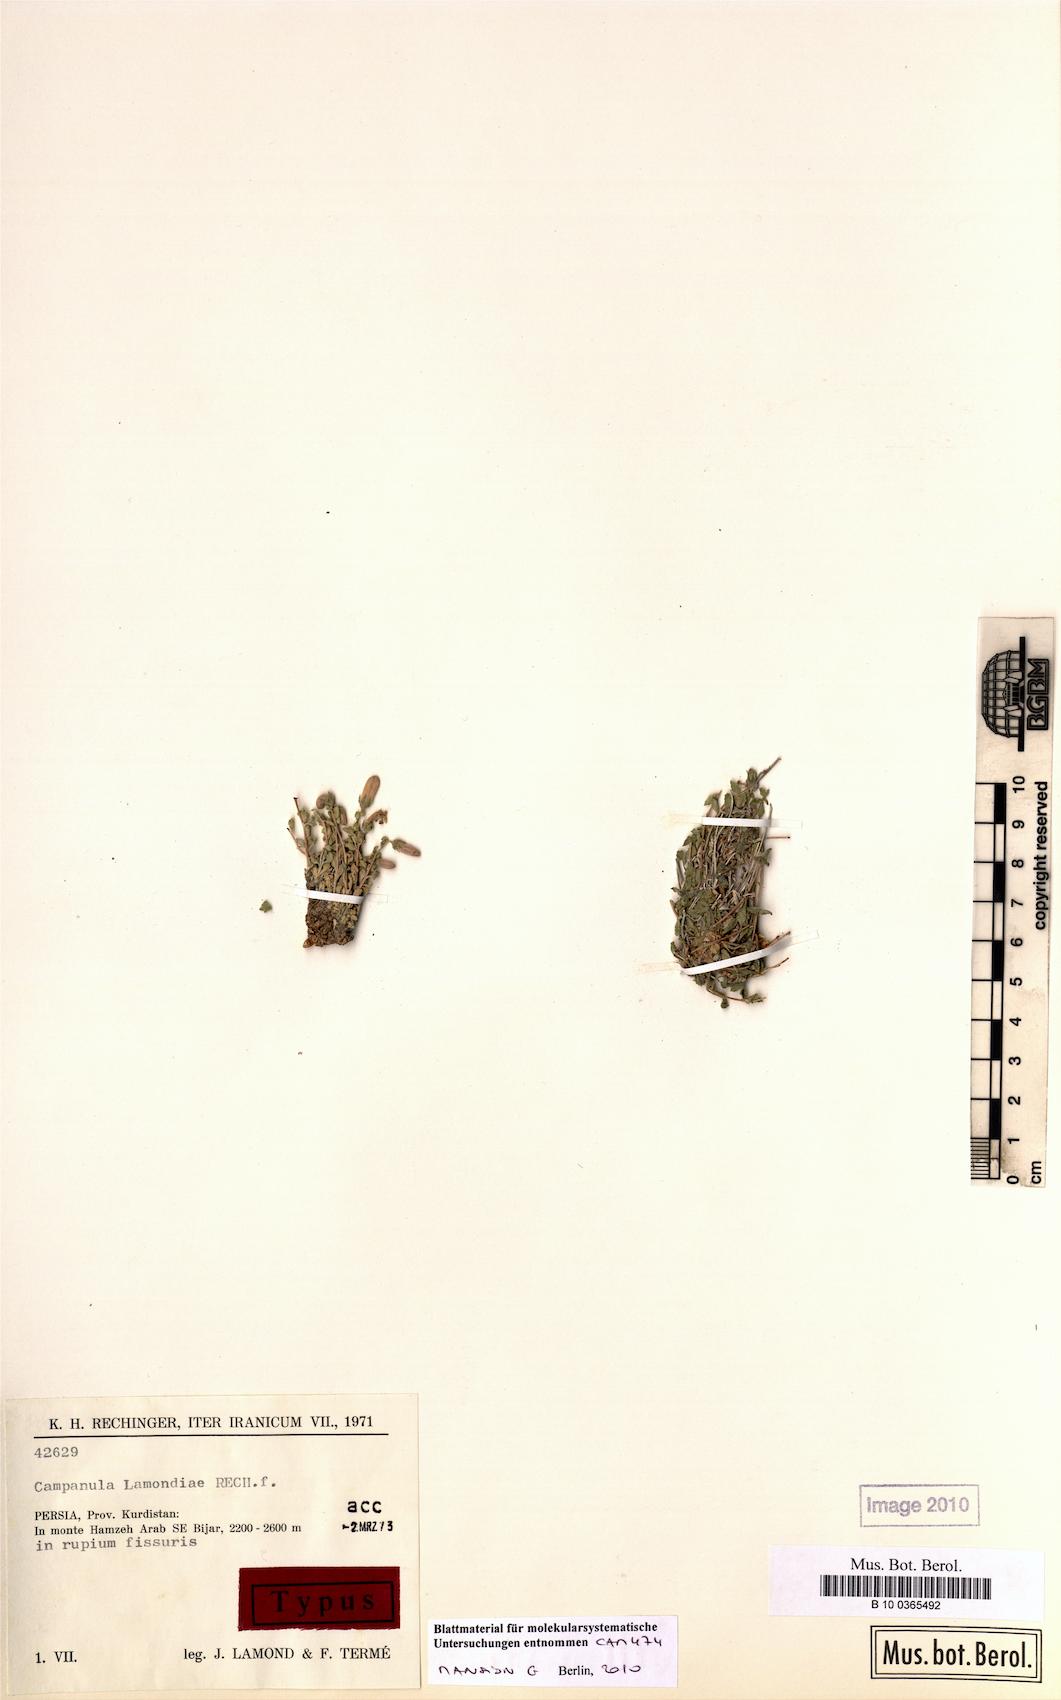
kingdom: Plantae
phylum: Tracheophyta
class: Magnoliopsida
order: Asterales
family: Campanulaceae
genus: Campanula
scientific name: Campanula lamondiae
